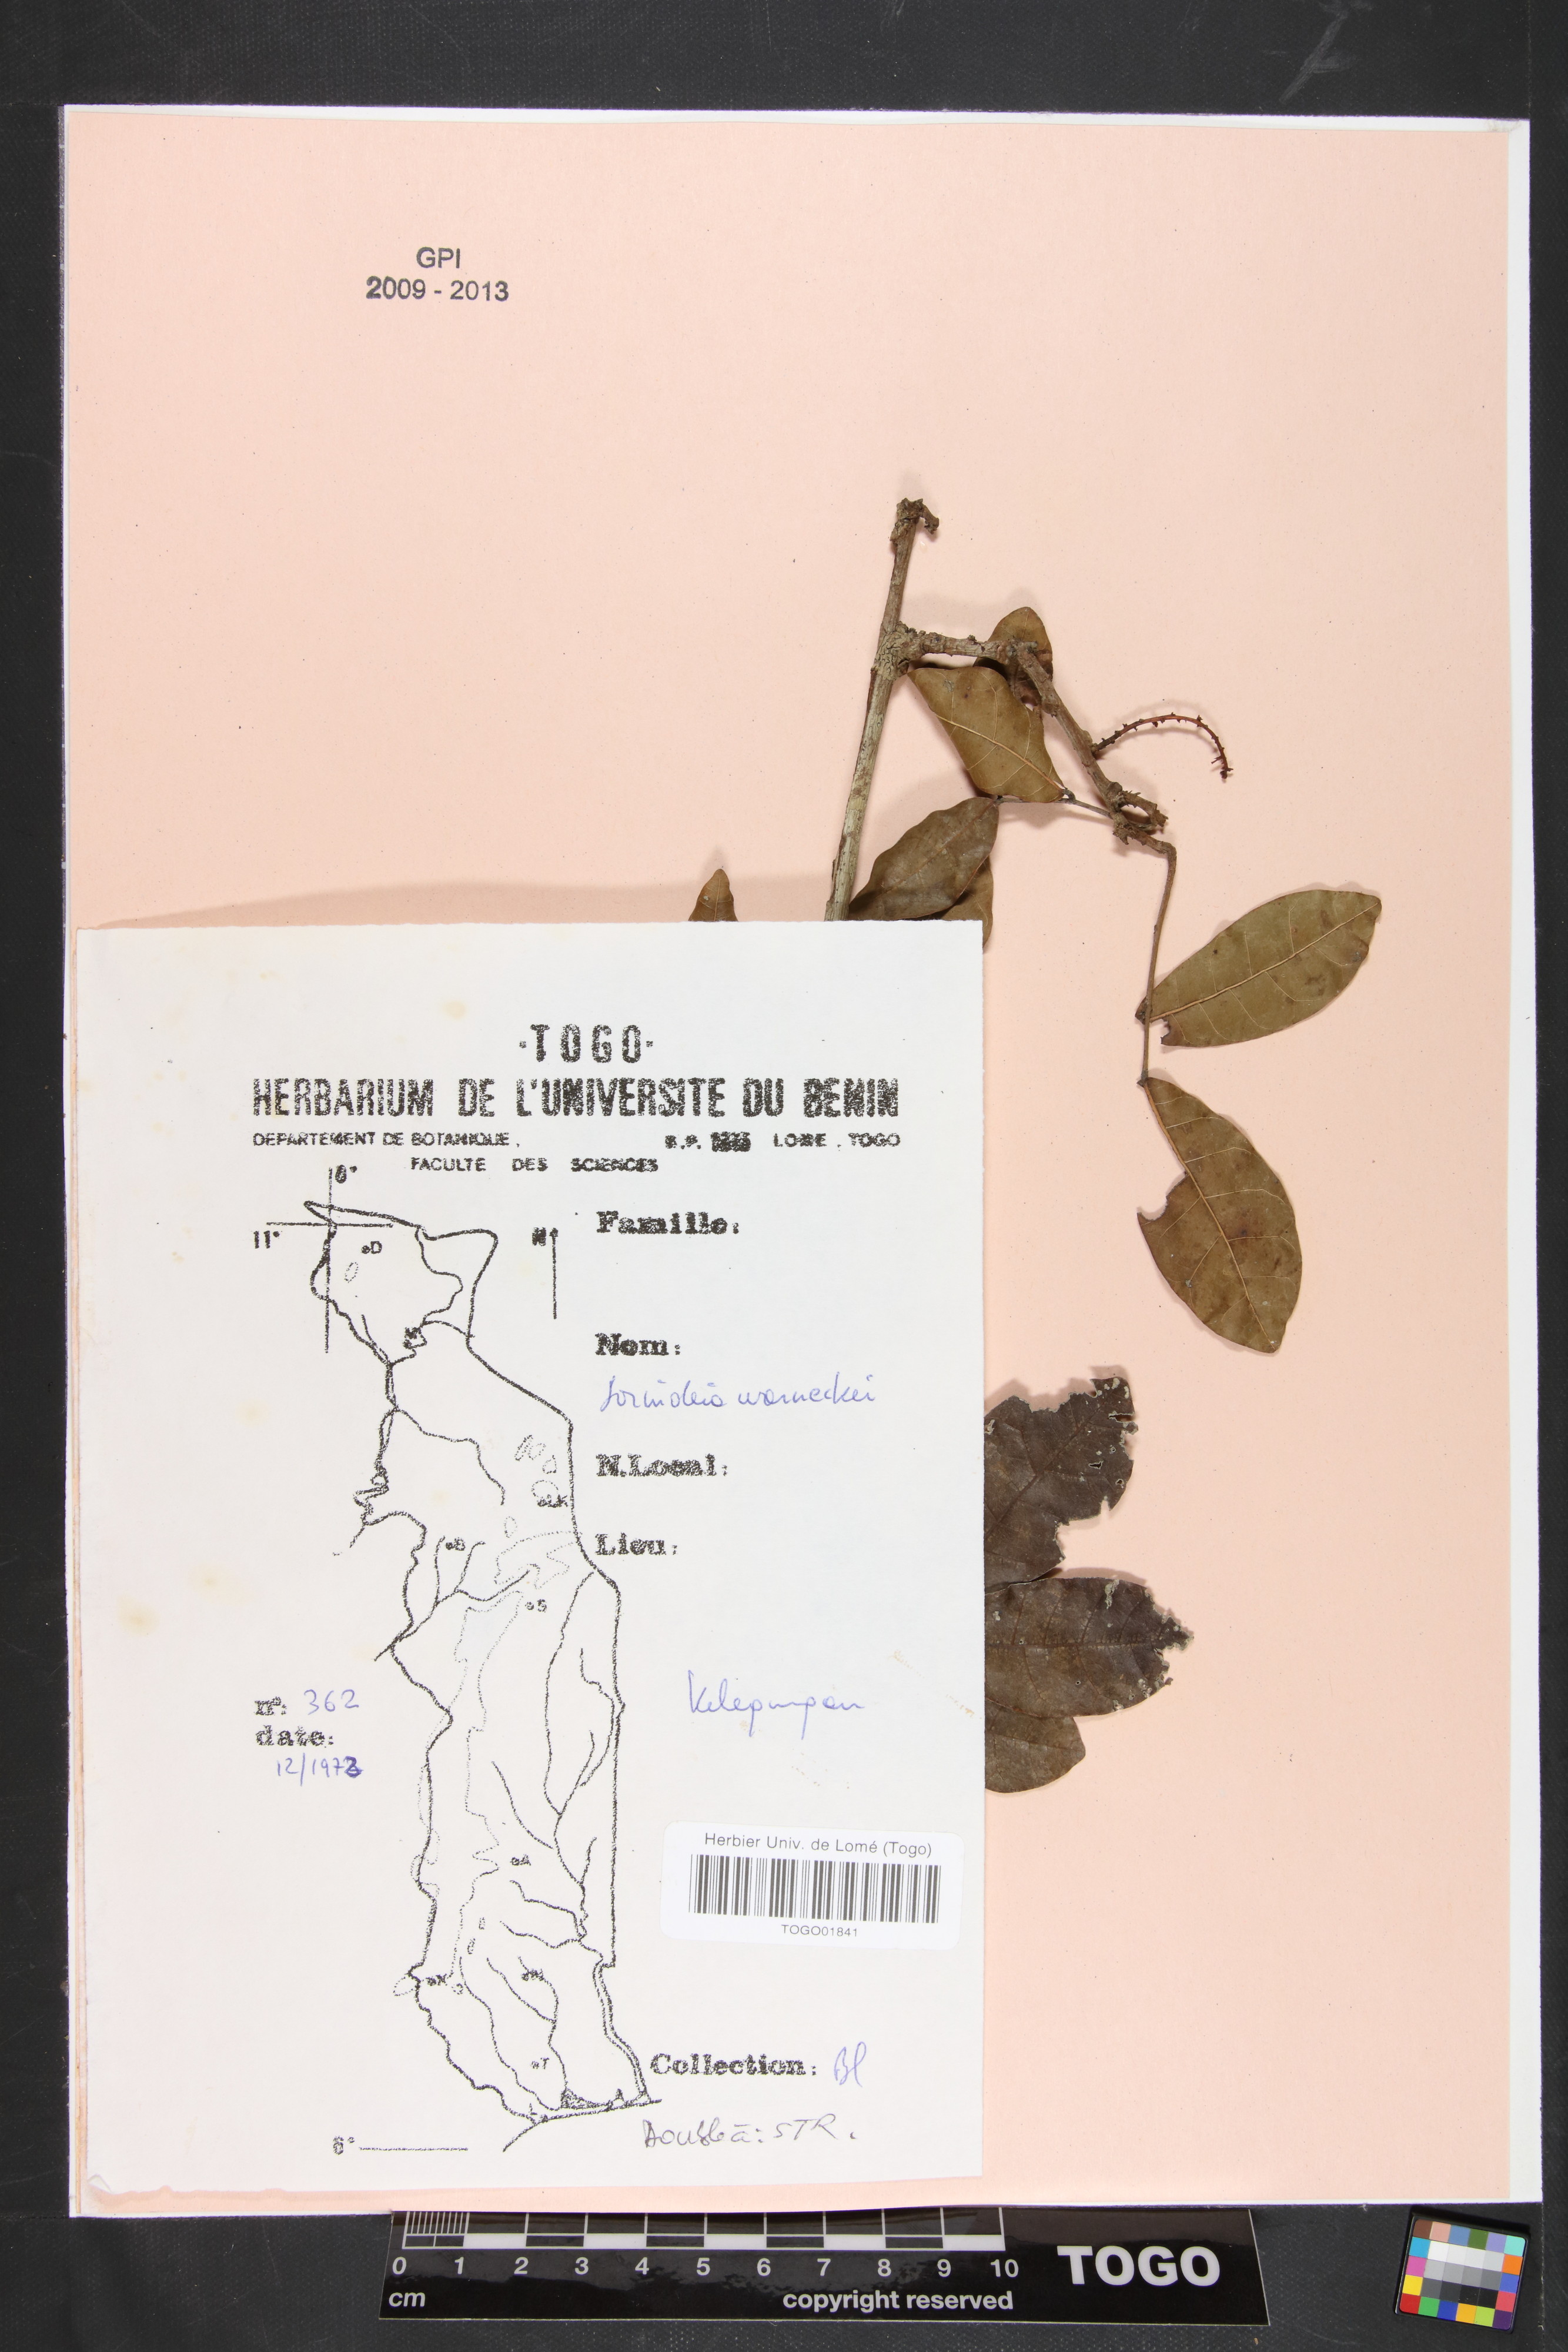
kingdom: Plantae
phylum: Tracheophyta
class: Magnoliopsida
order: Sapindales
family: Anacardiaceae
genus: Sorindeia
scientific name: Sorindeia grandifolia
